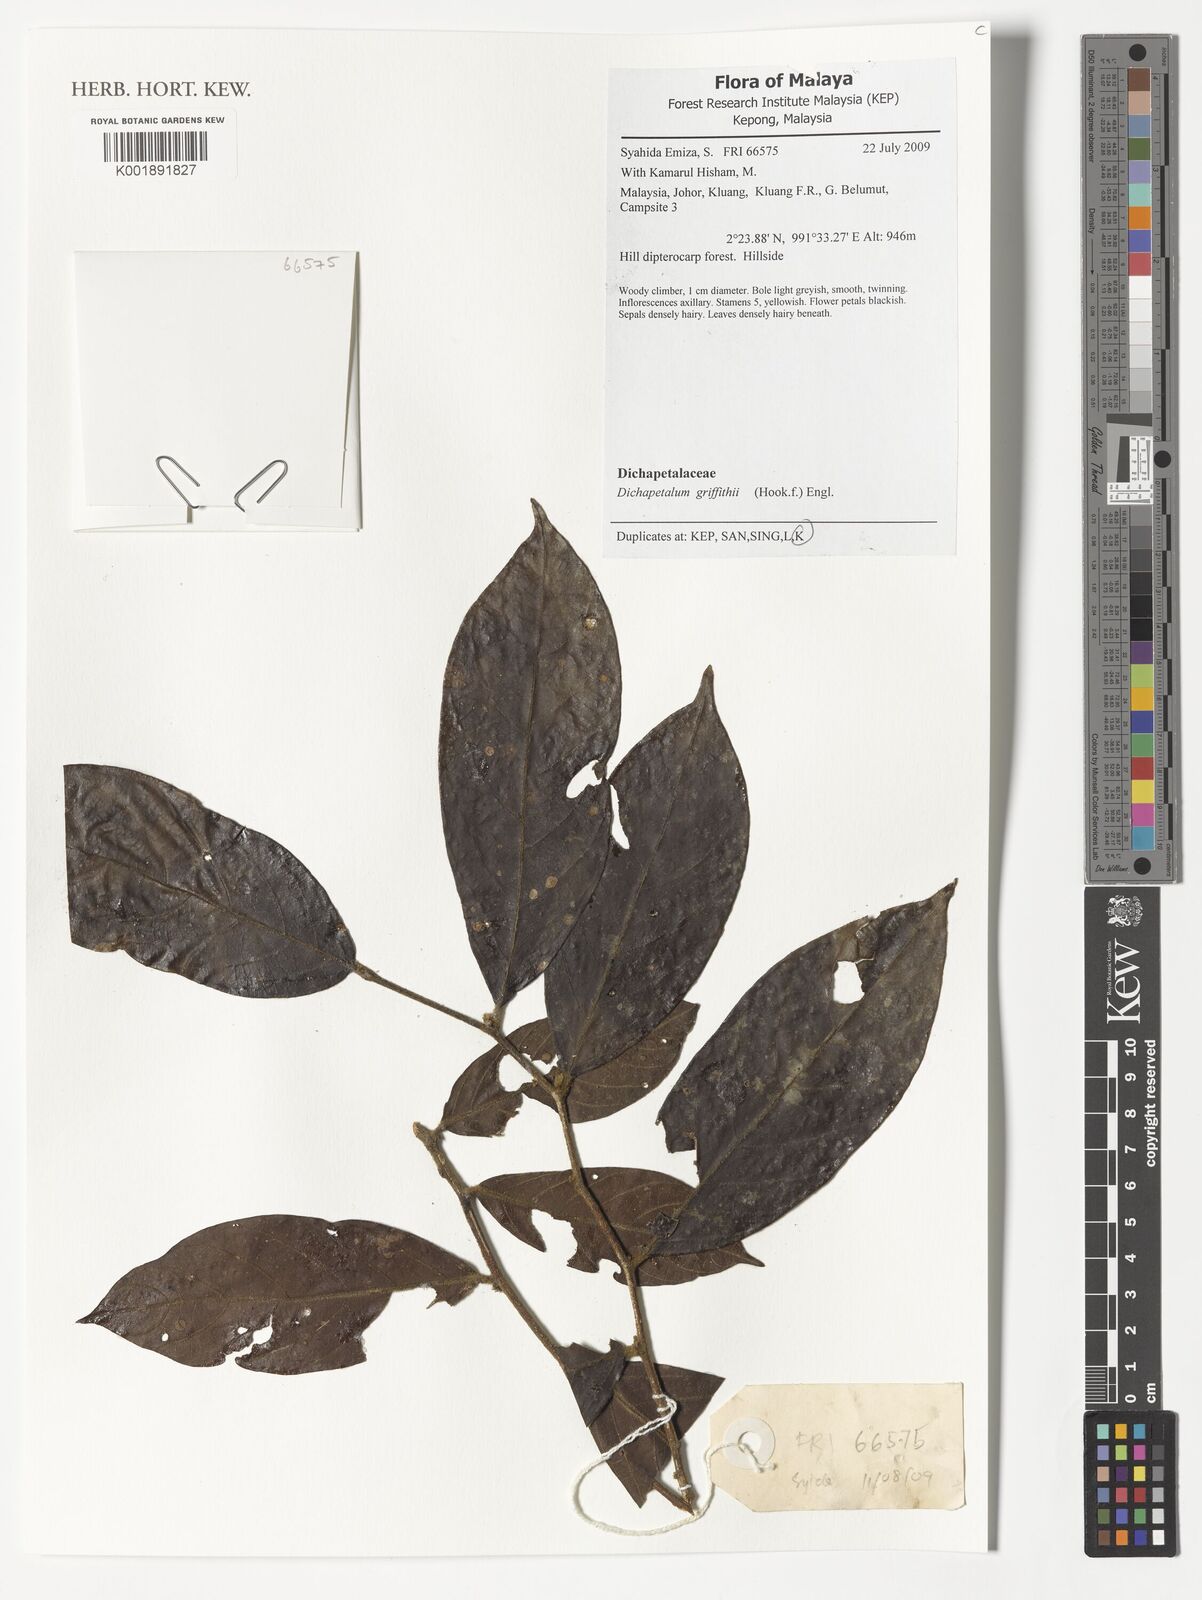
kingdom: Plantae
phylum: Tracheophyta
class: Magnoliopsida
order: Malpighiales
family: Dichapetalaceae
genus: Dichapetalum
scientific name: Dichapetalum griffithii
